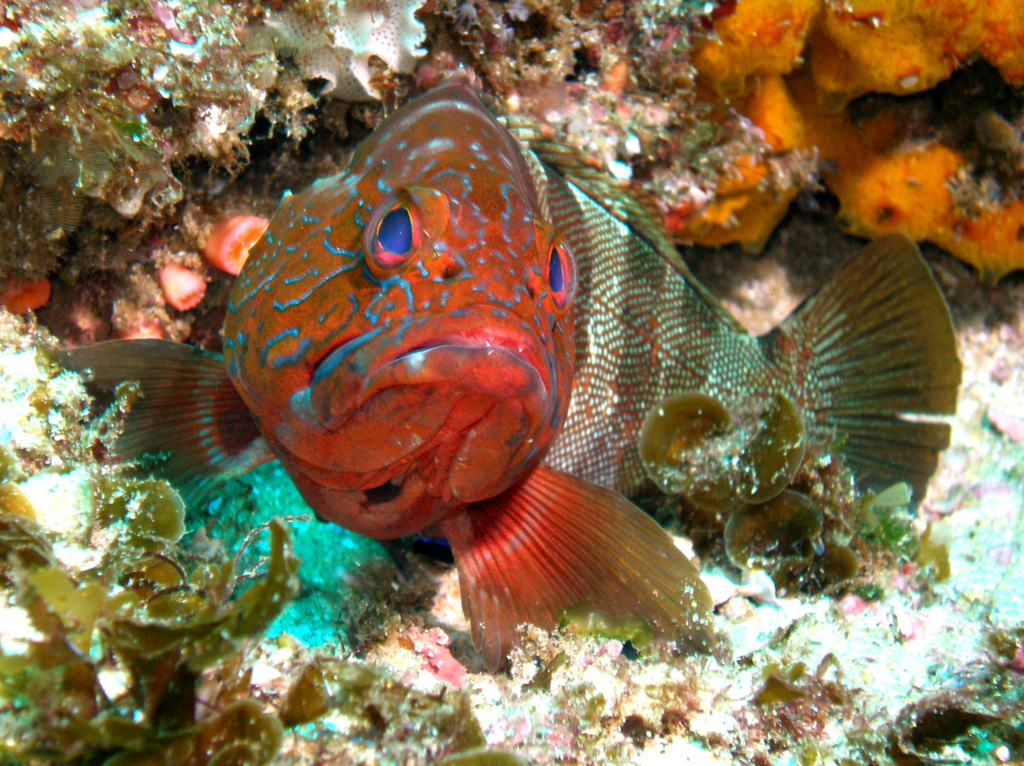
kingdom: Animalia
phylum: Chordata
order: Perciformes
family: Serranidae
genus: Epinephelus
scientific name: Epinephelus rivulatus
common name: Halfmoon grouper
